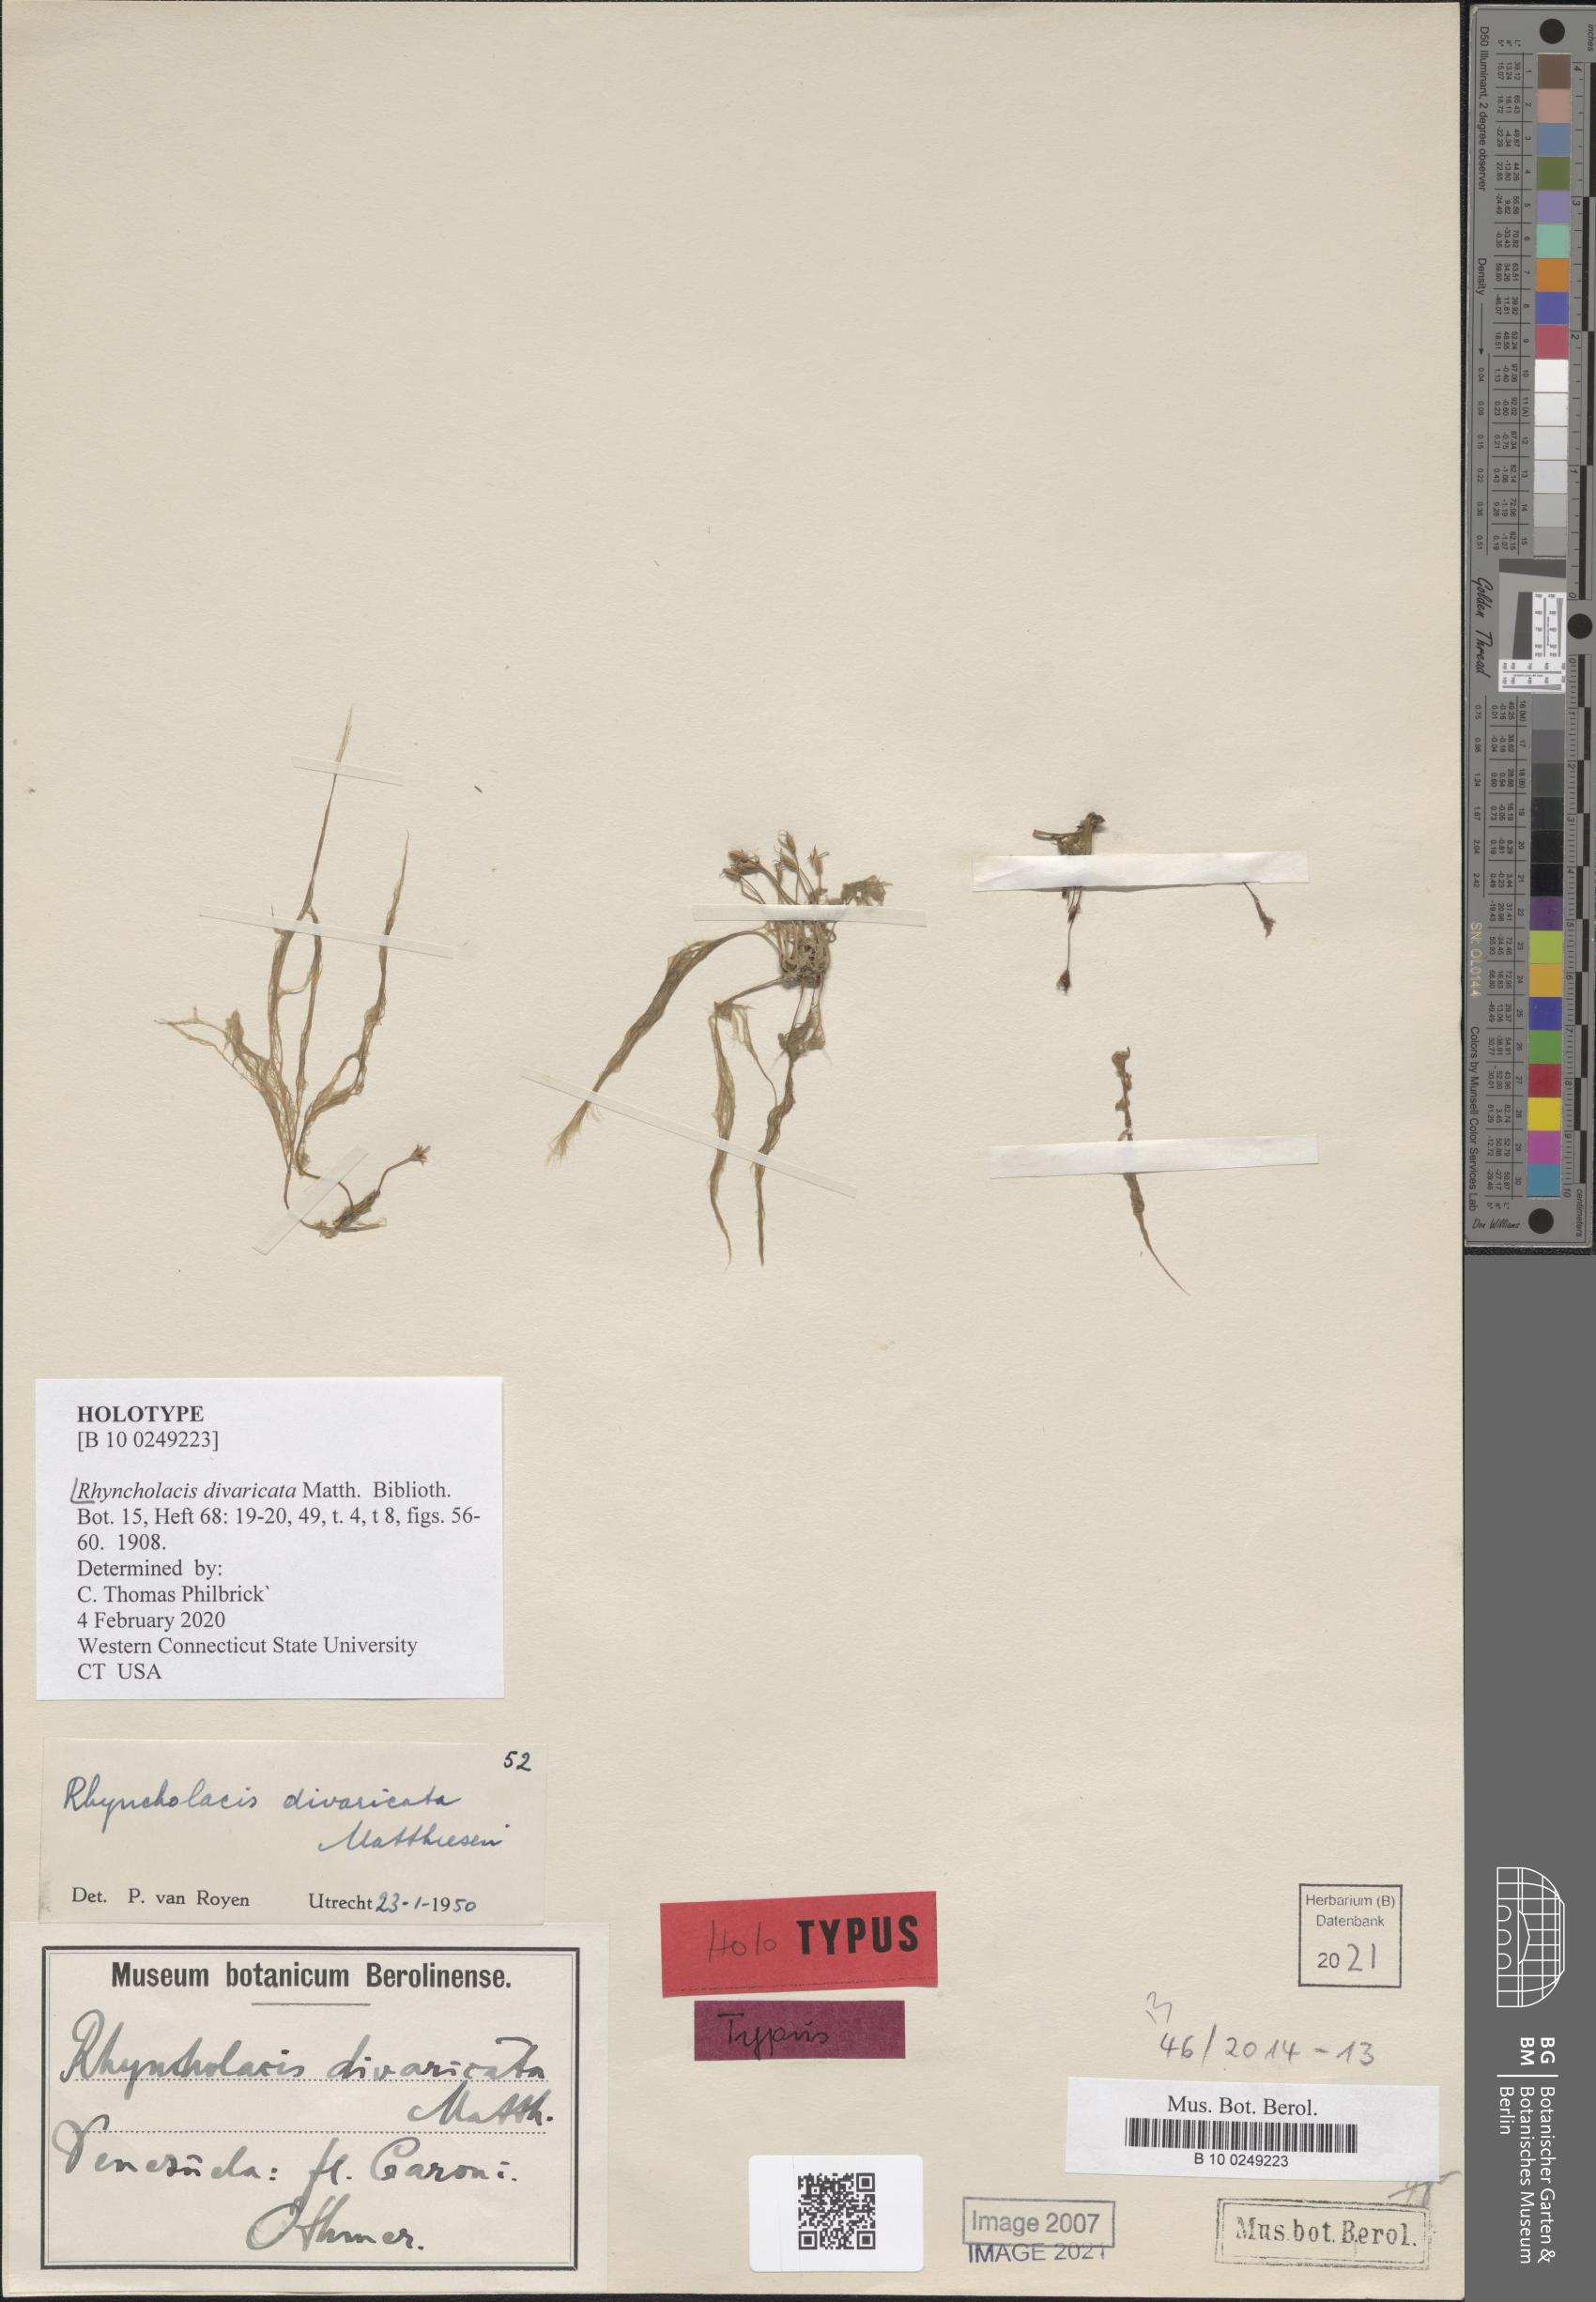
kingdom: Plantae
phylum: Tracheophyta
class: Magnoliopsida
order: Malpighiales
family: Podostemaceae
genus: Rhyncholacis
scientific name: Rhyncholacis divaricata
